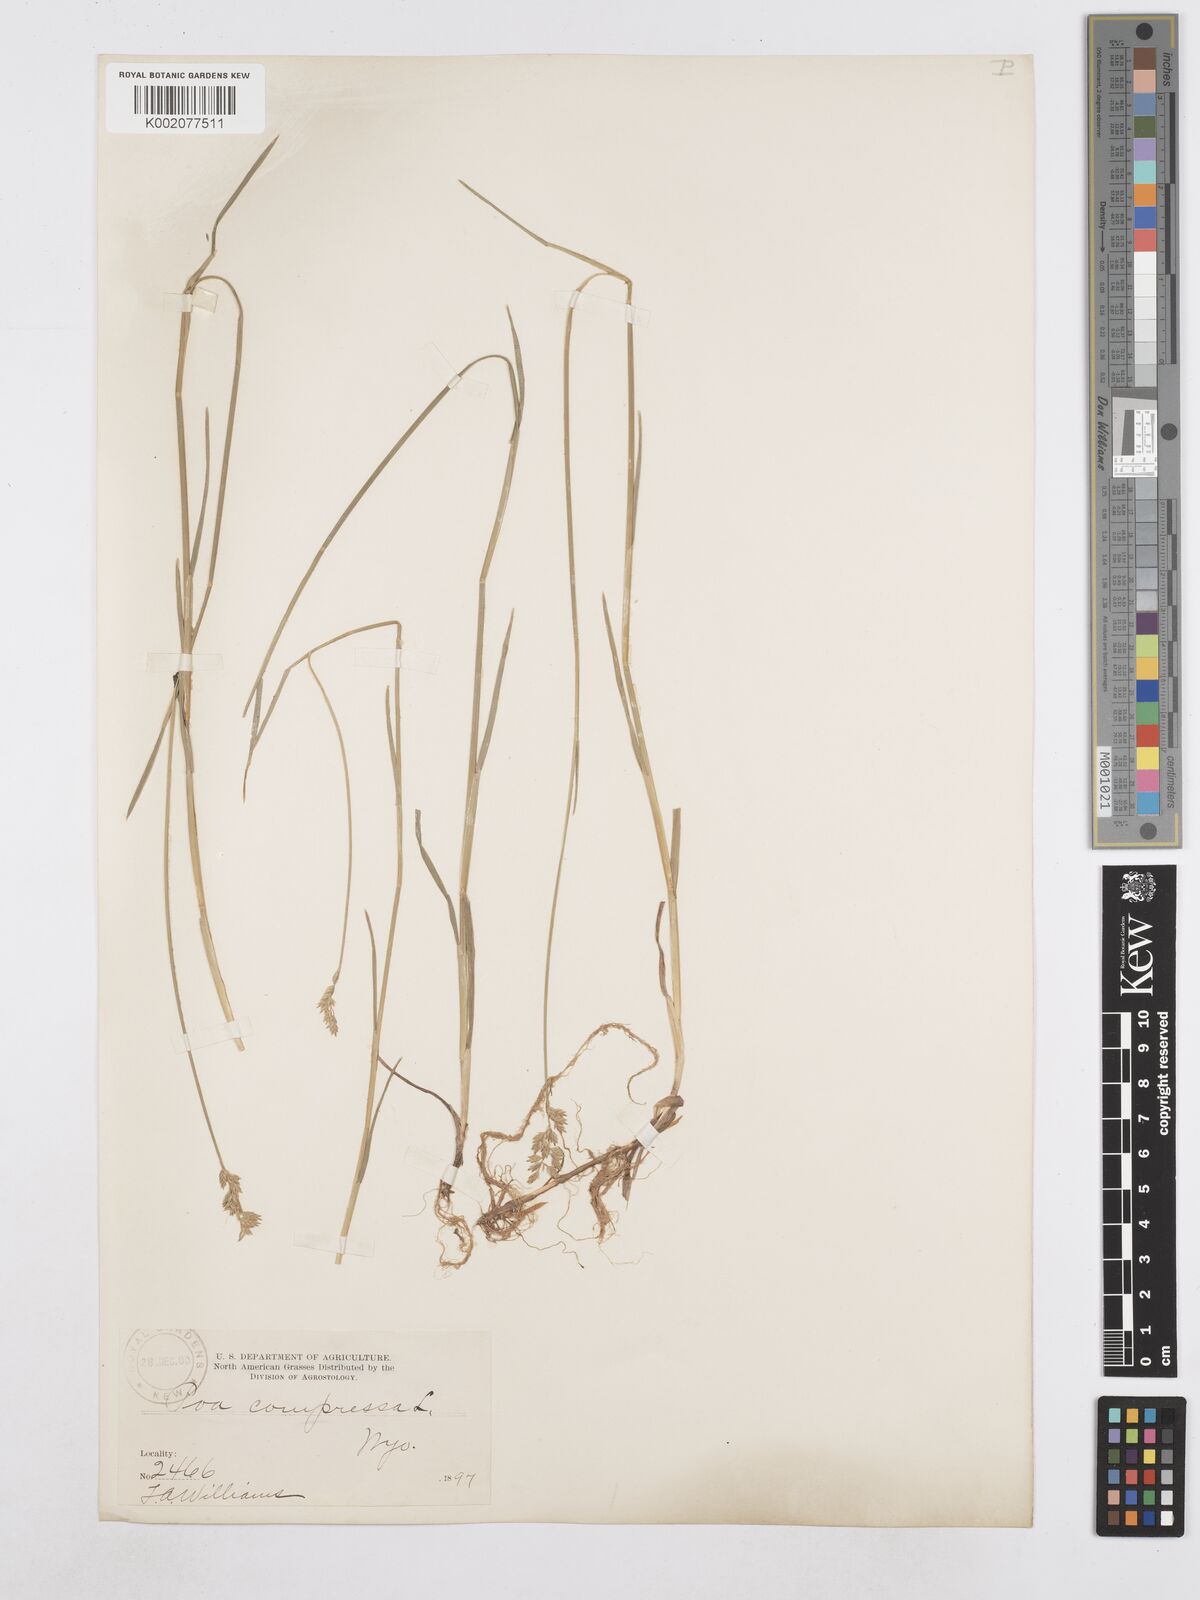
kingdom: Plantae
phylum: Tracheophyta
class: Liliopsida
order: Poales
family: Poaceae
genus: Poa
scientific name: Poa compressa
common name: Canada bluegrass
